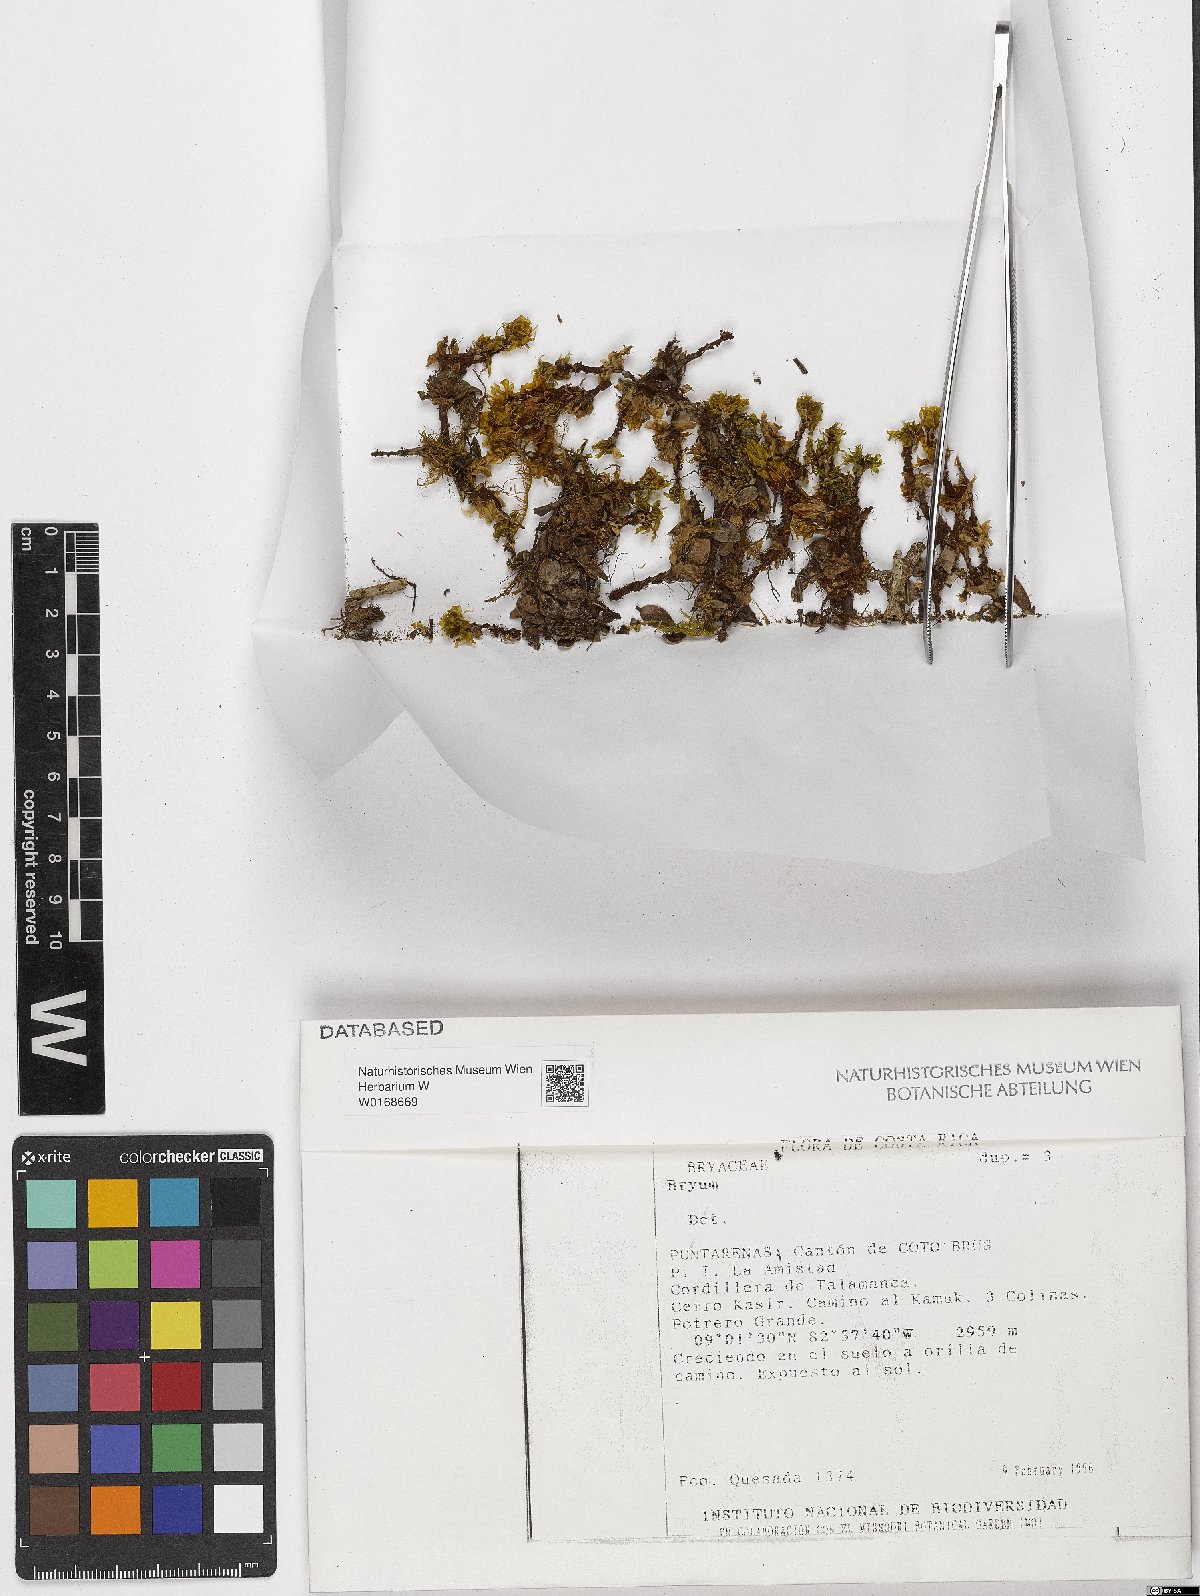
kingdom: Plantae
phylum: Bryophyta
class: Bryopsida
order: Bryales
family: Bryaceae
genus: Bryum
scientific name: Bryum
